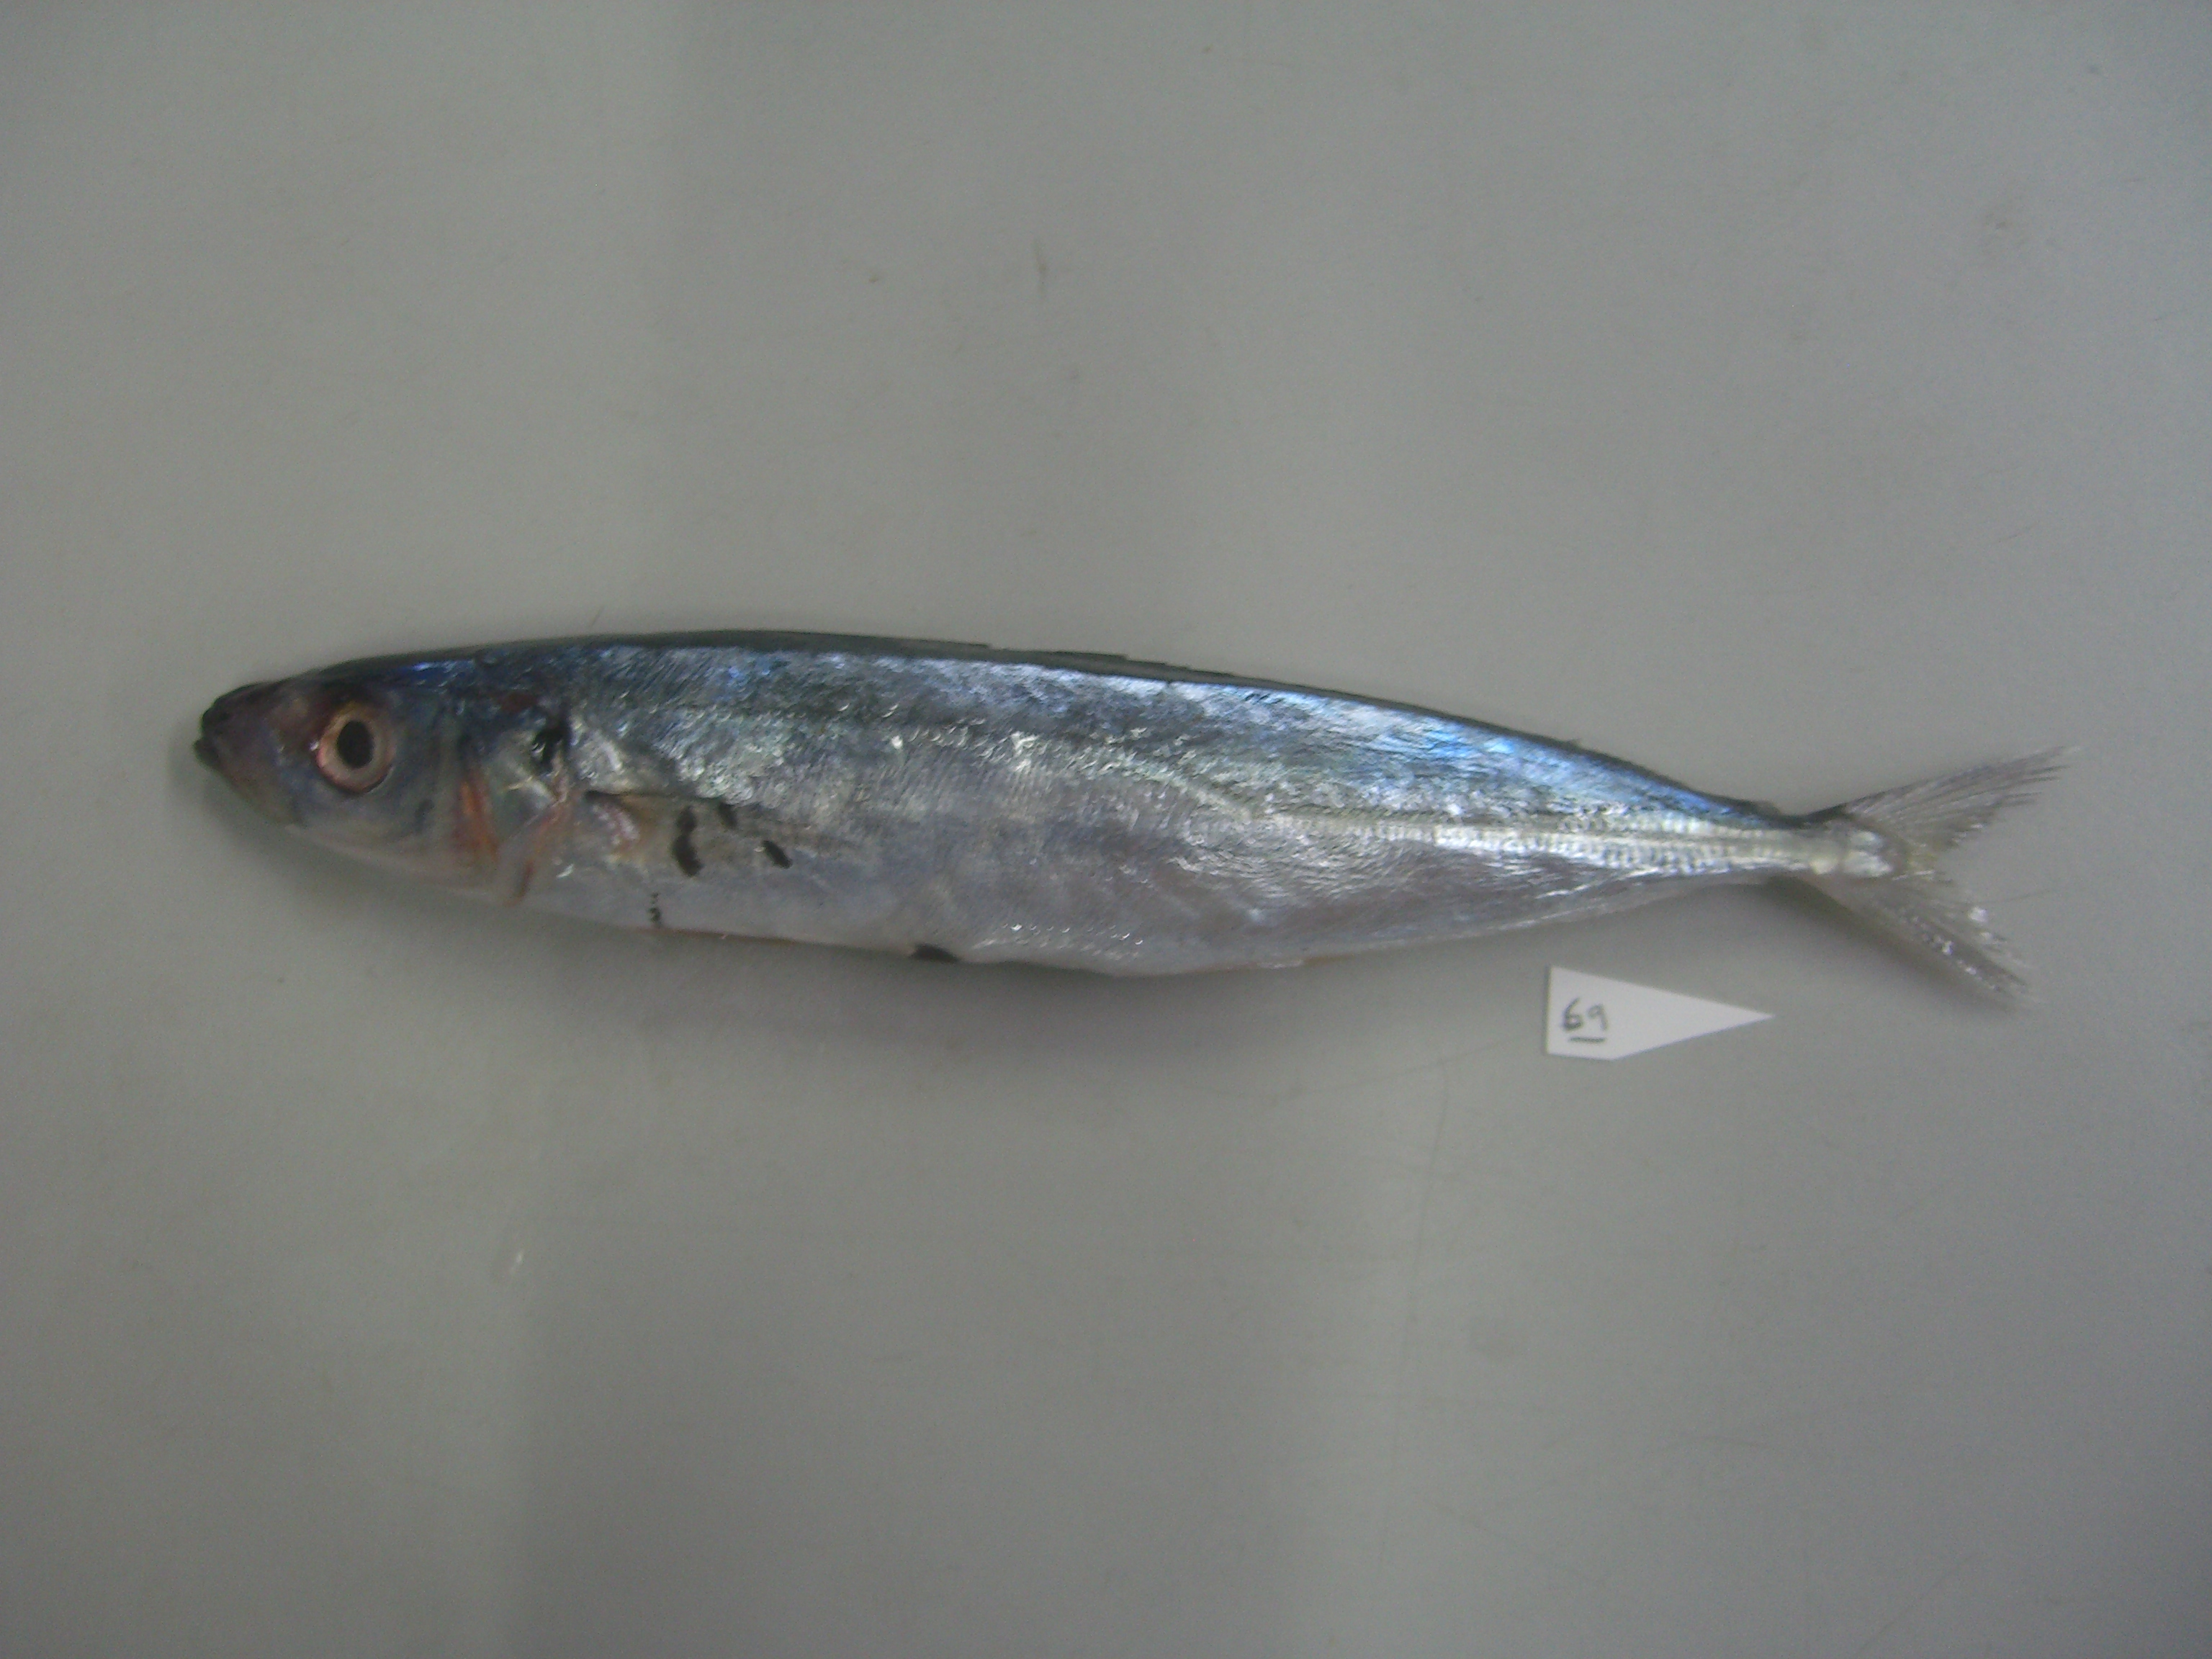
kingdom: Animalia
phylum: Chordata
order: Perciformes
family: Carangidae
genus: Decapterus
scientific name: Decapterus macrosoma
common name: Shortfin scad
